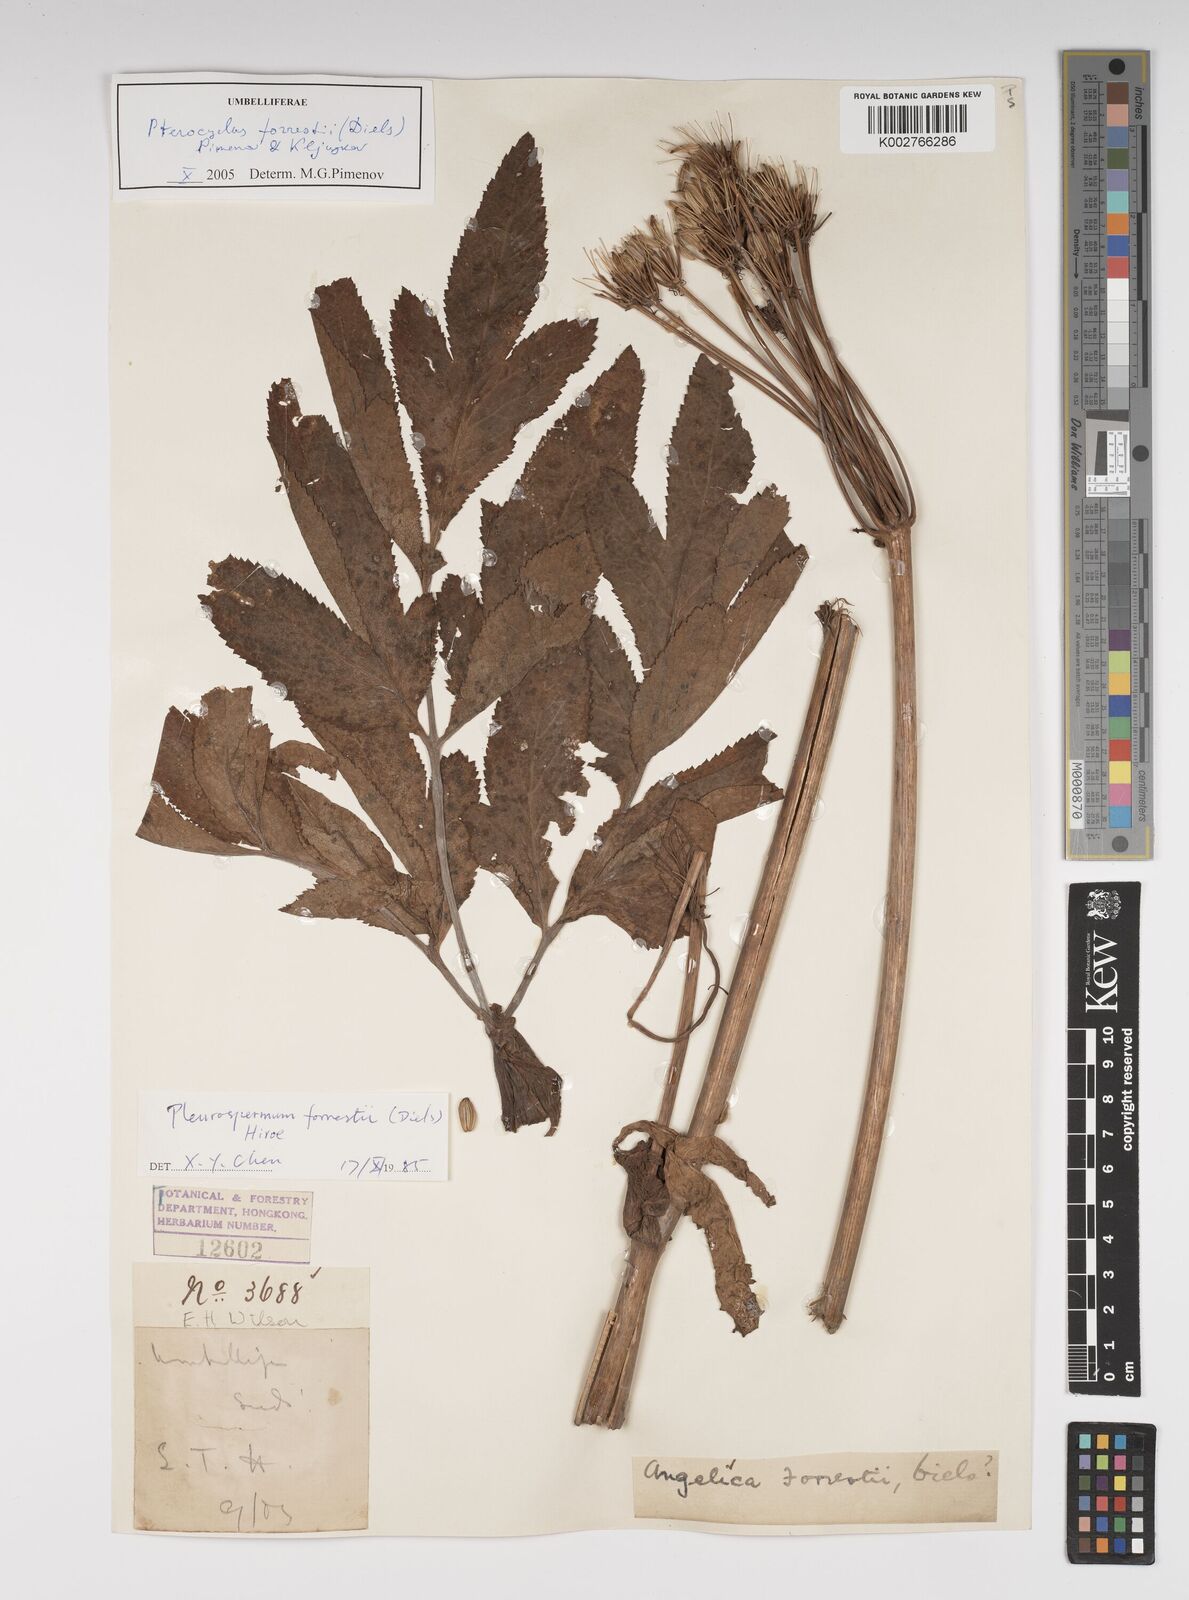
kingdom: Plantae
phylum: Tracheophyta
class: Magnoliopsida
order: Apiales
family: Apiaceae
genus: Pterocyclus
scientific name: Pterocyclus forrestii
